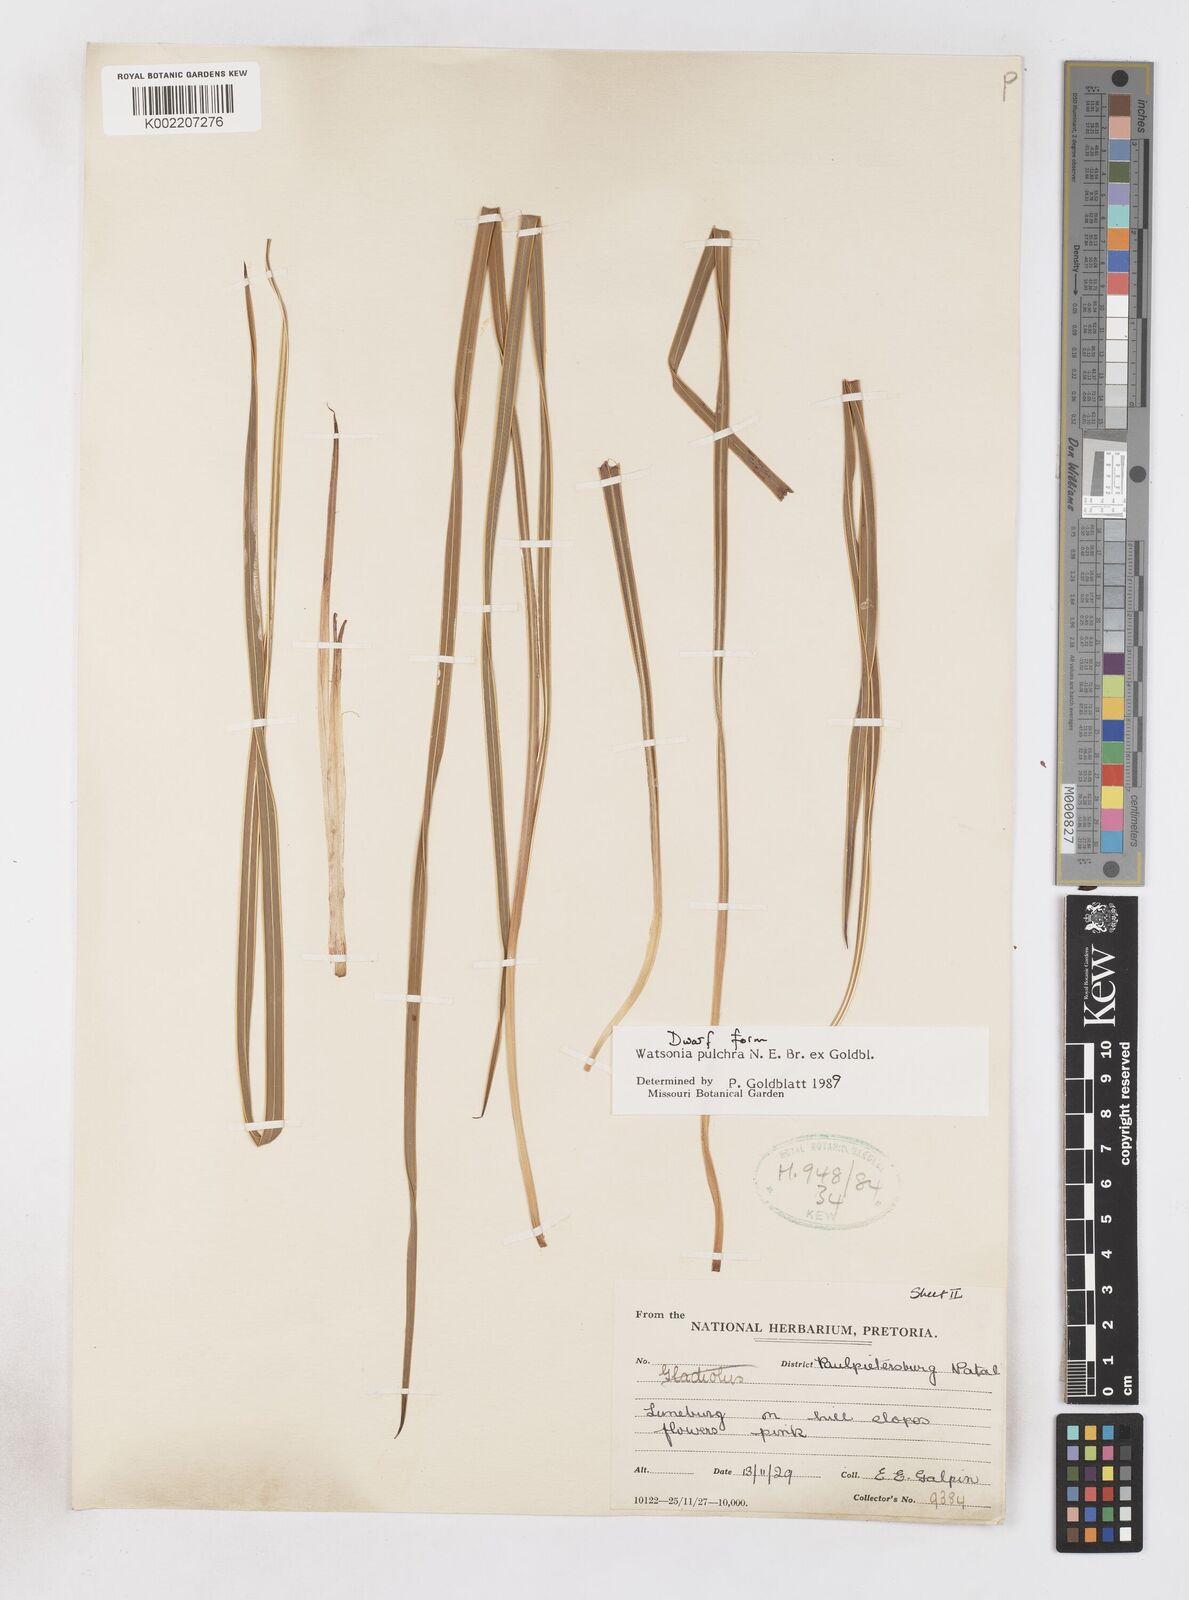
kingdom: Plantae
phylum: Tracheophyta
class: Liliopsida
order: Asparagales
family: Iridaceae
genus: Watsonia
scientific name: Watsonia pulchra
